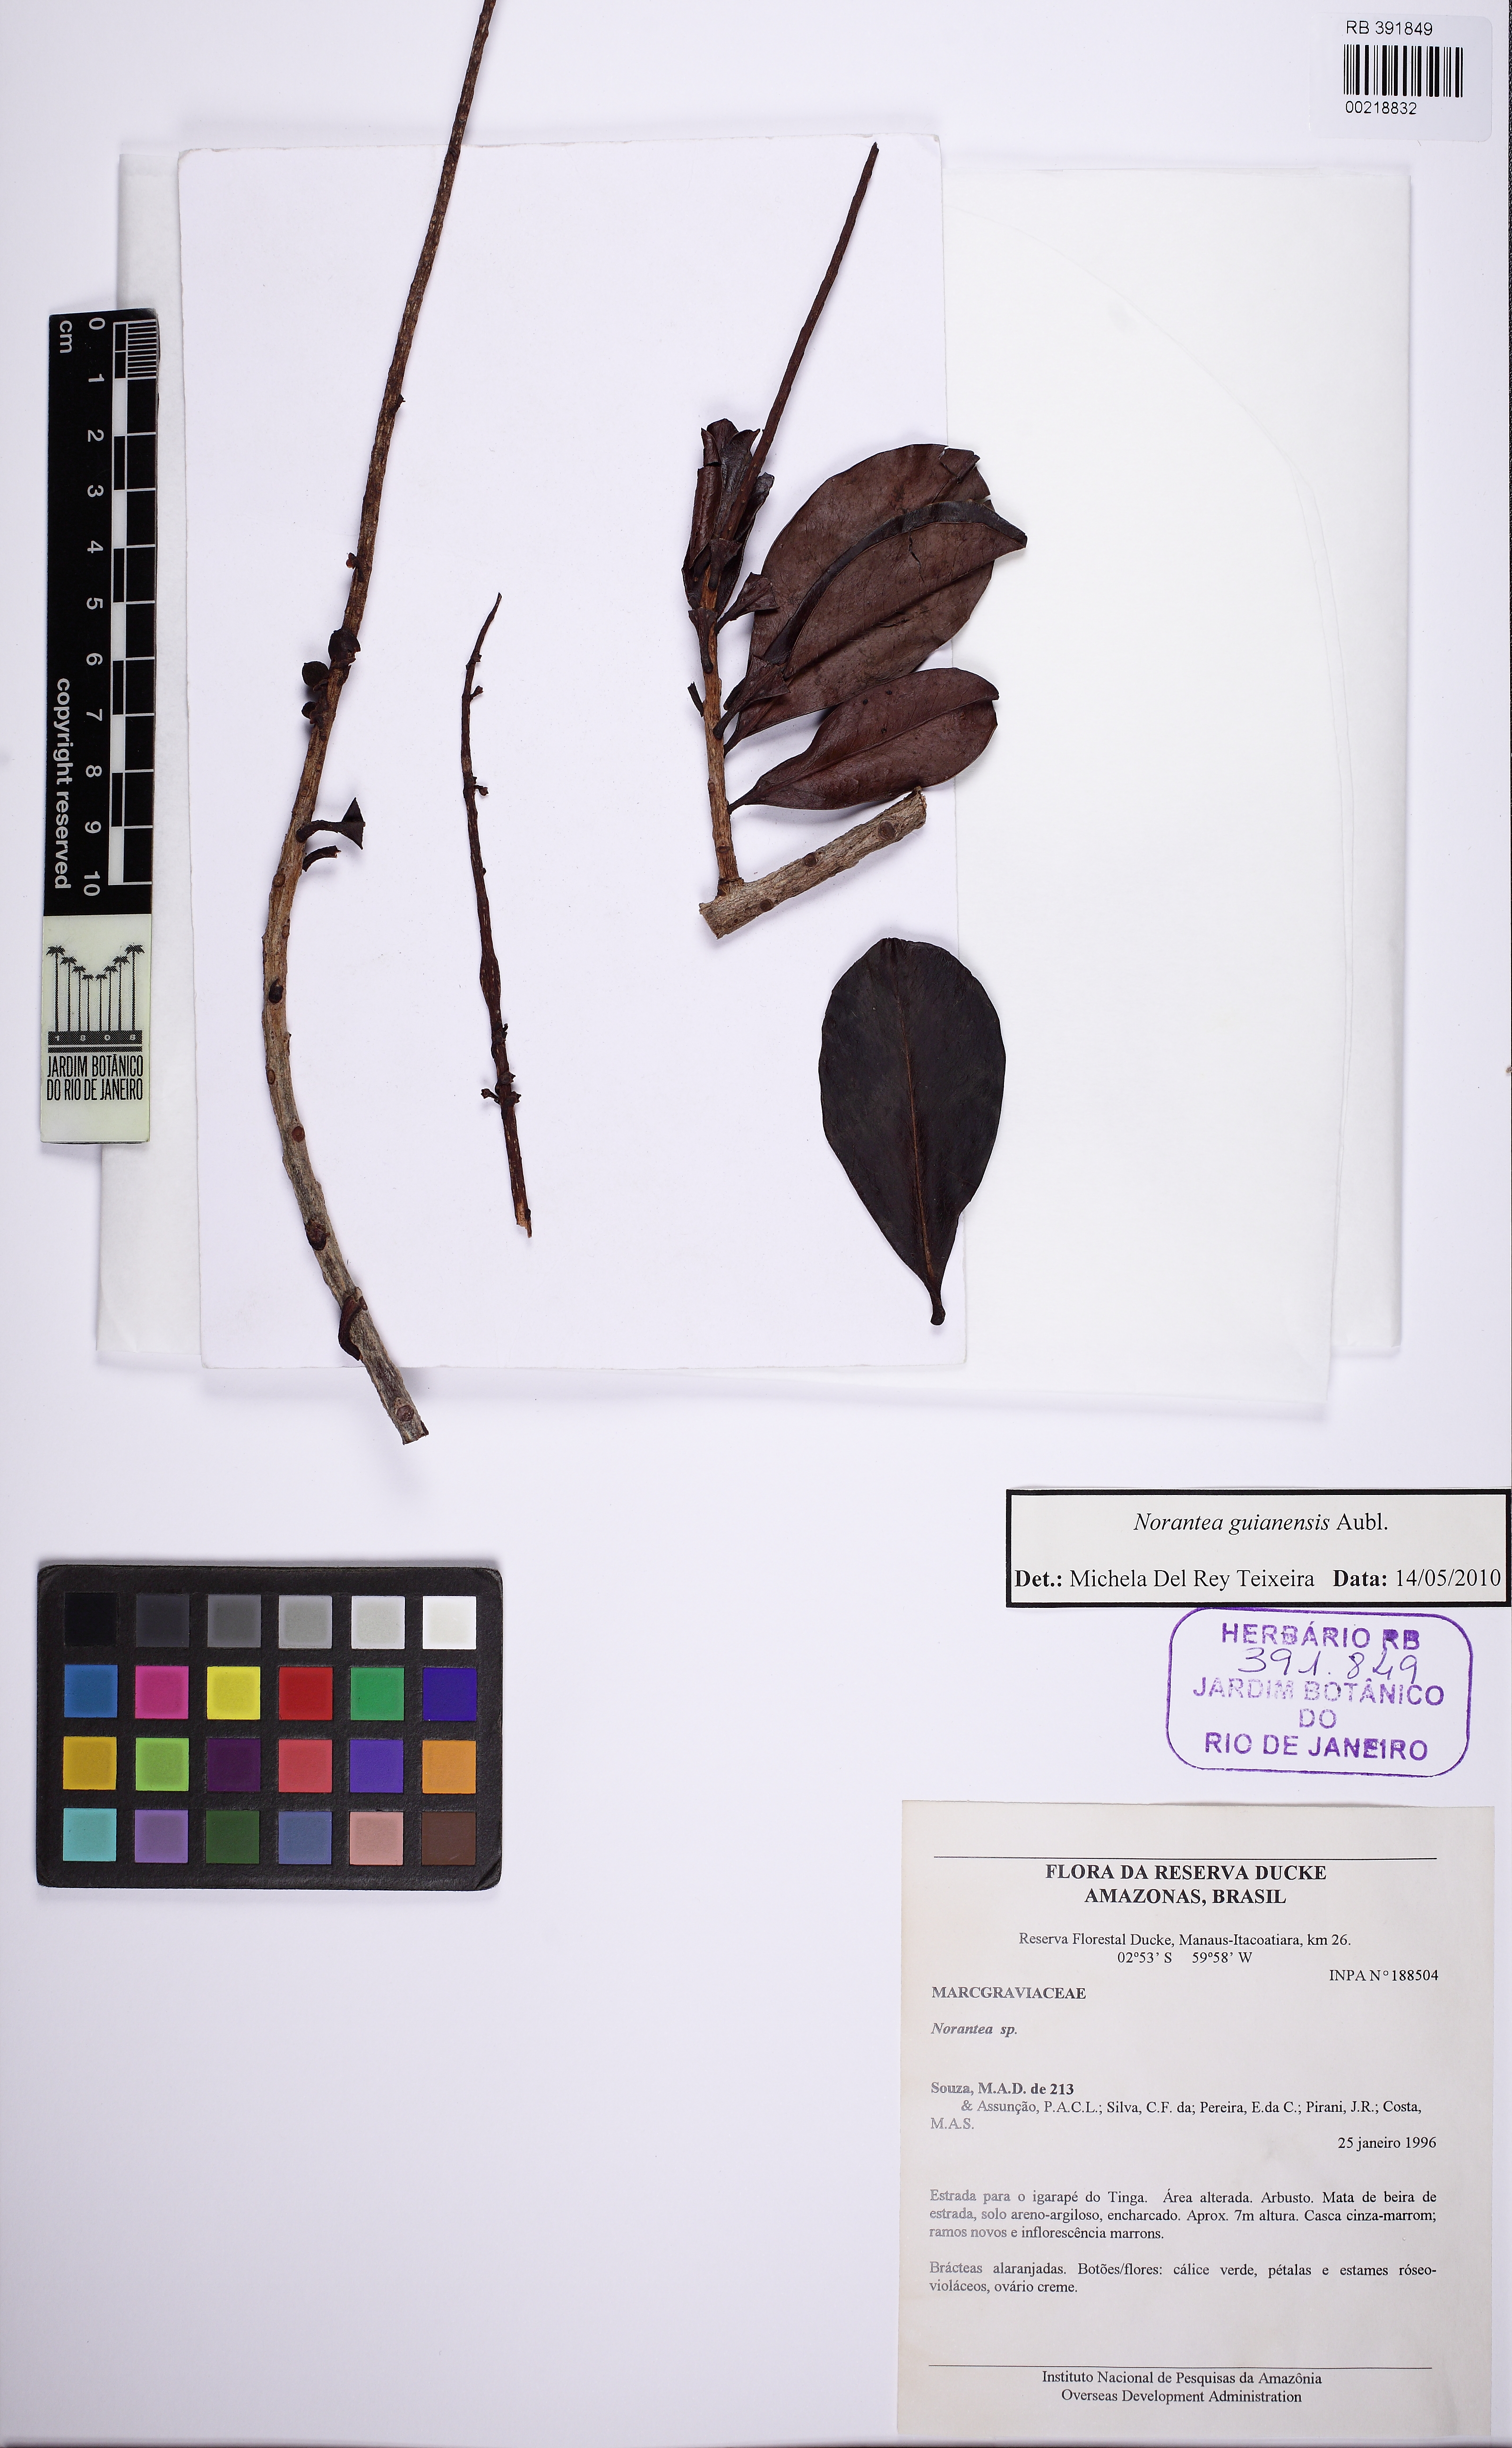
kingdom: Plantae
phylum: Tracheophyta
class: Magnoliopsida
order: Ericales
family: Marcgraviaceae
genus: Norantea
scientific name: Norantea guianensis
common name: Red hot poker vine
